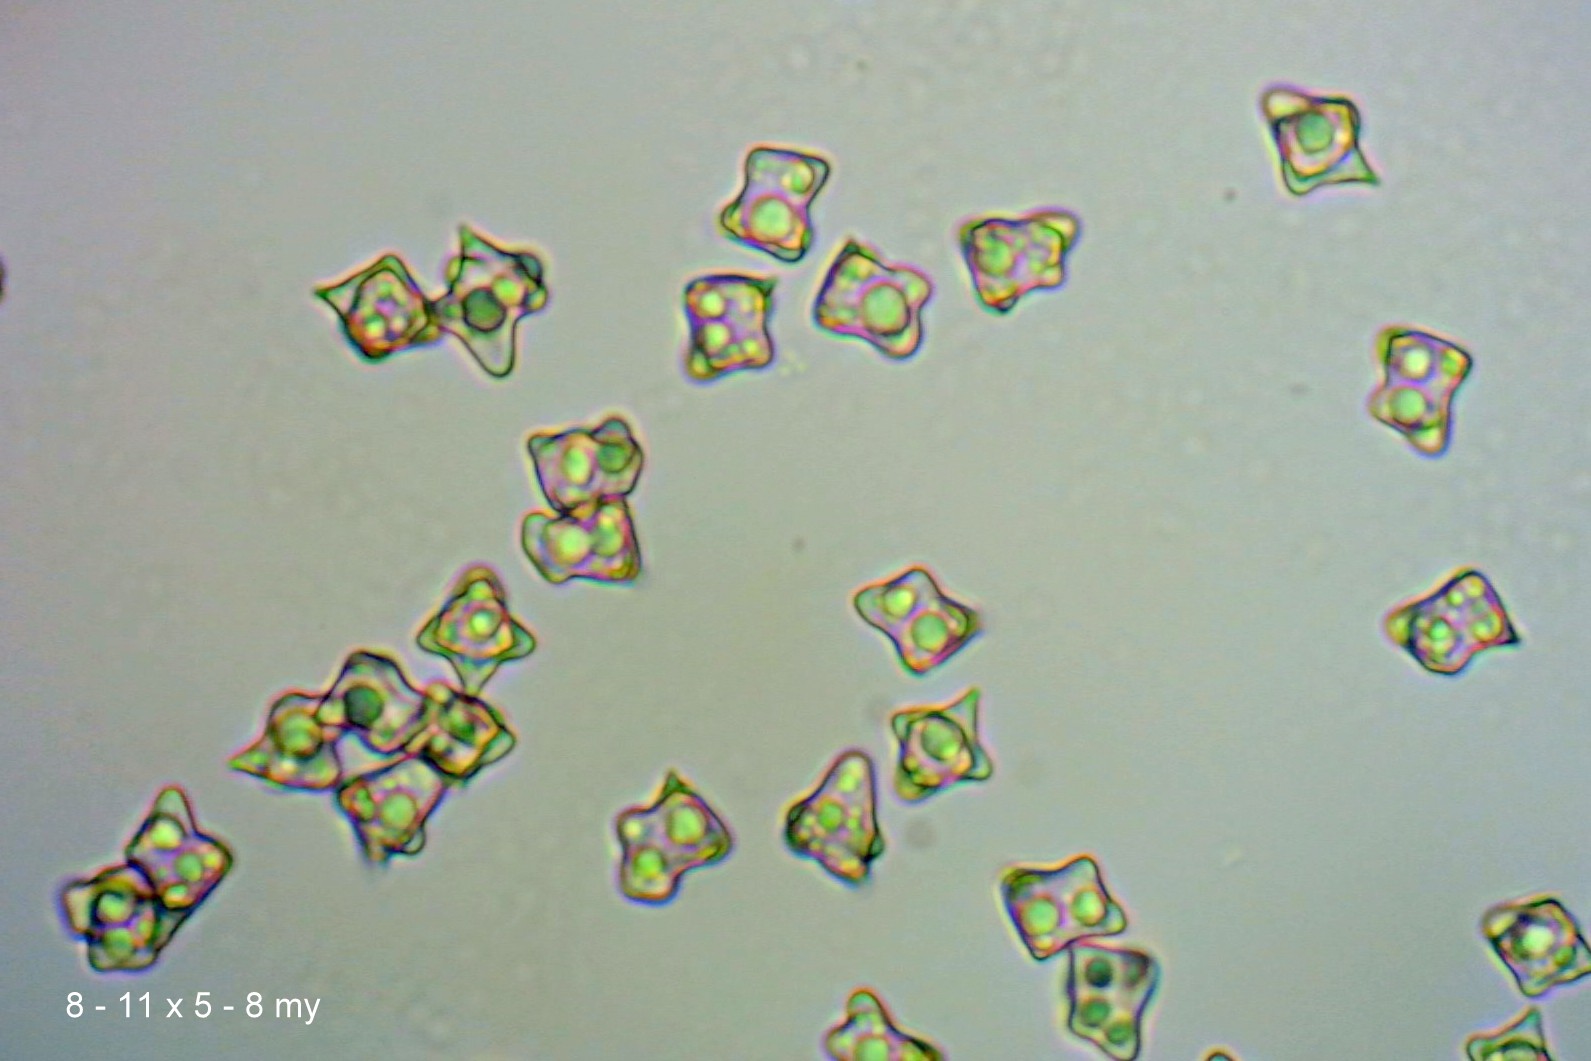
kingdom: Fungi
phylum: Basidiomycota
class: Agaricomycetes
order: Agaricales
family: Entolomataceae
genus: Entoloma
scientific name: Entoloma conferendum
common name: stjernesporet rødblad
